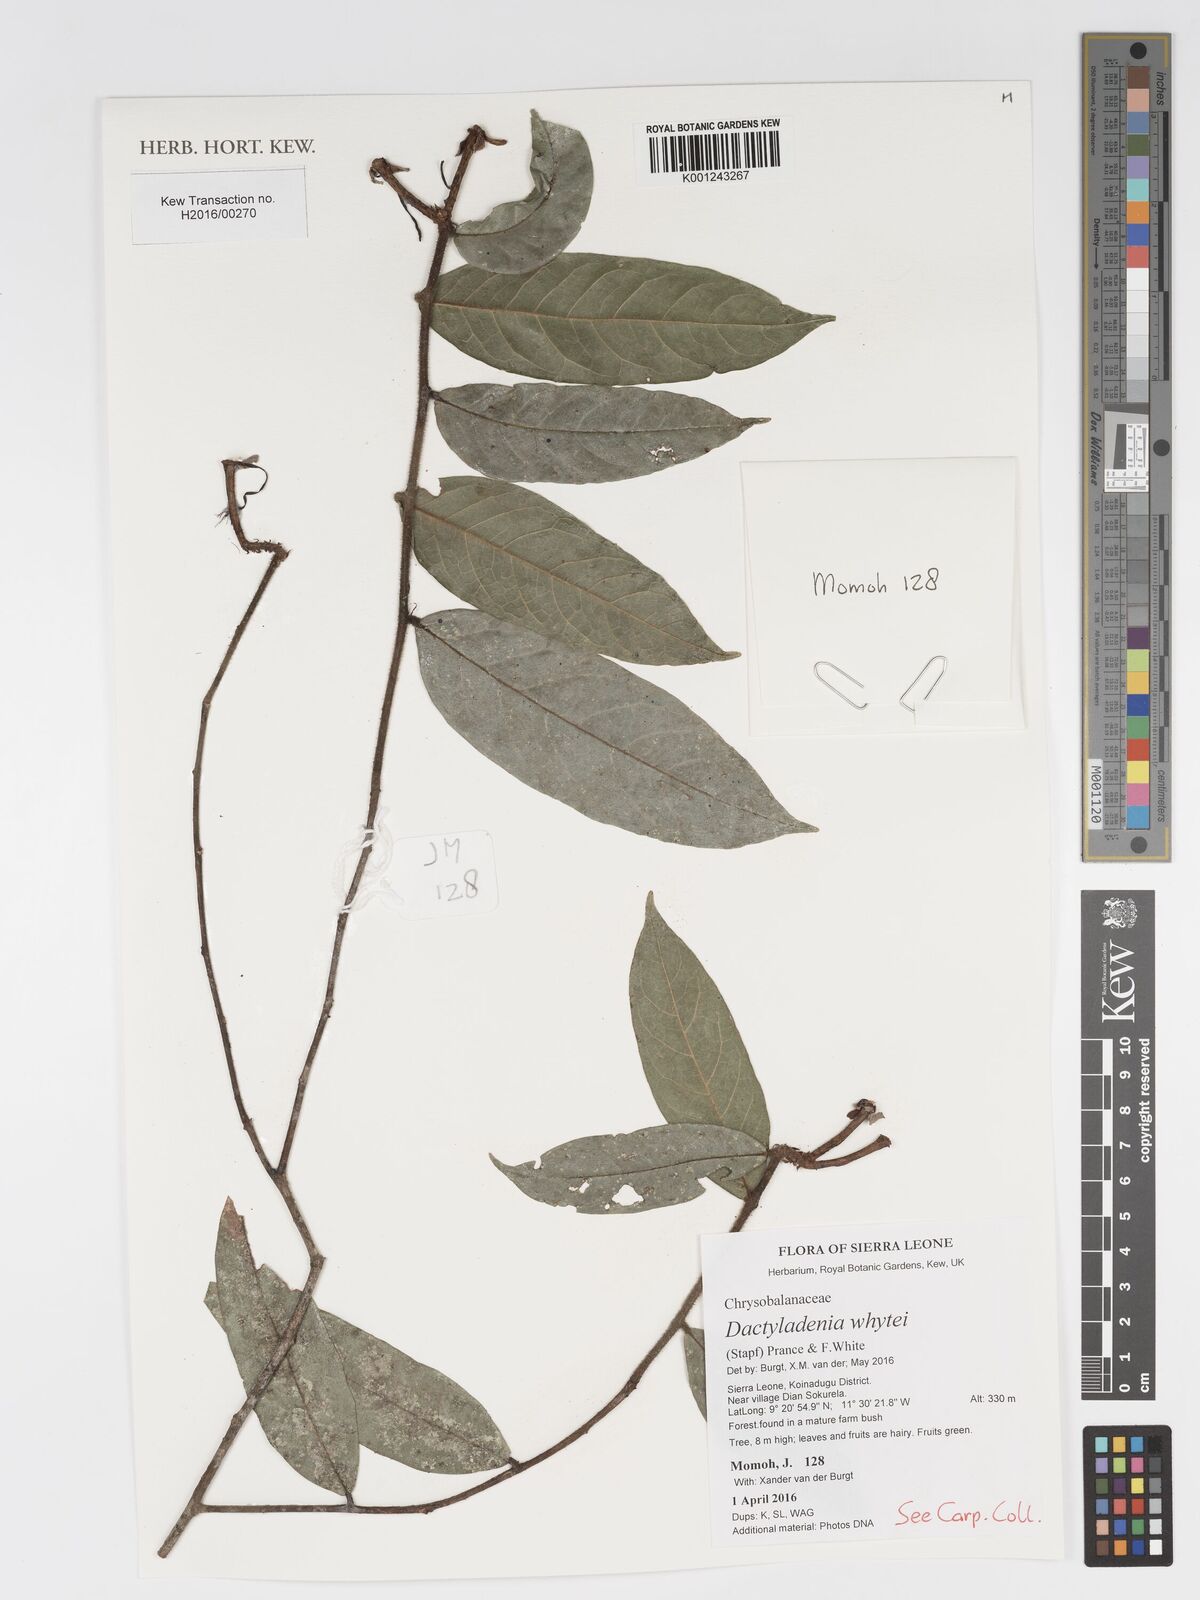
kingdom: Plantae
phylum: Tracheophyta
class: Magnoliopsida
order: Malpighiales
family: Chrysobalanaceae
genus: Dactyladenia
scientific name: Dactyladenia whytei
